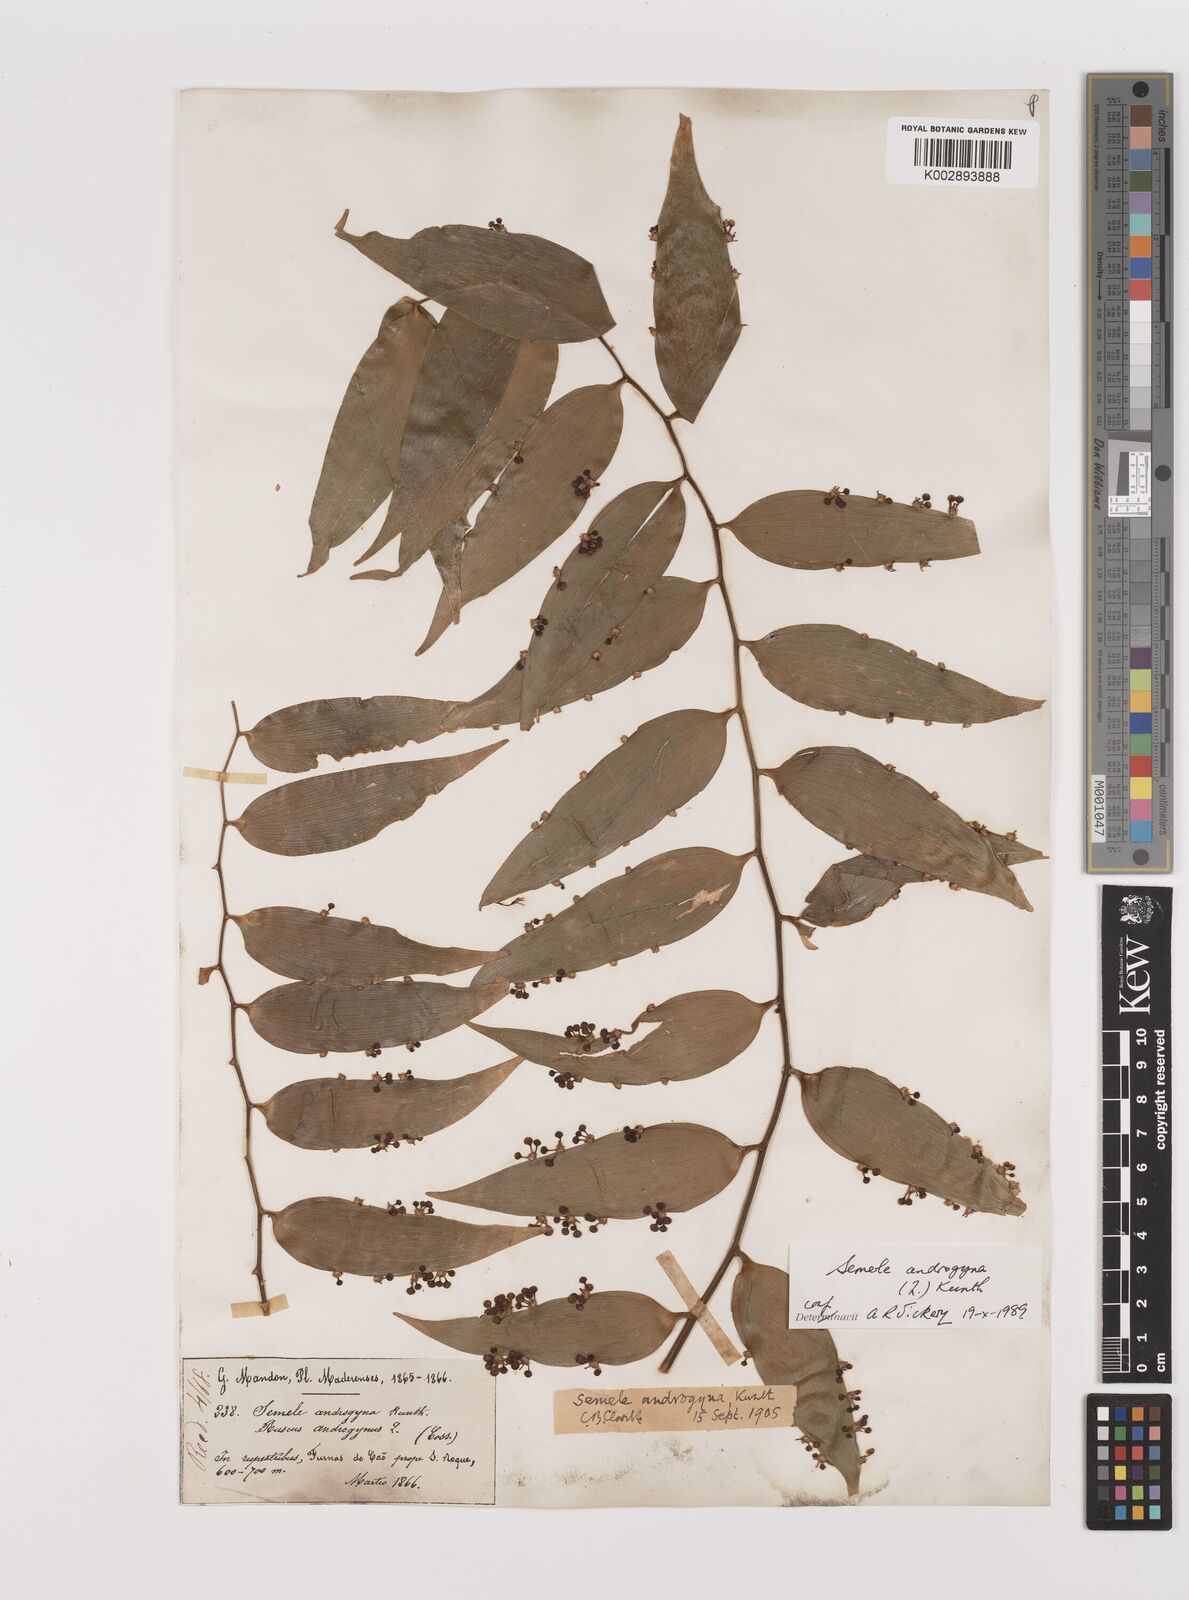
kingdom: Plantae
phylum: Tracheophyta
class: Liliopsida
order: Asparagales
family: Asparagaceae
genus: Semele
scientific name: Semele androgyna
